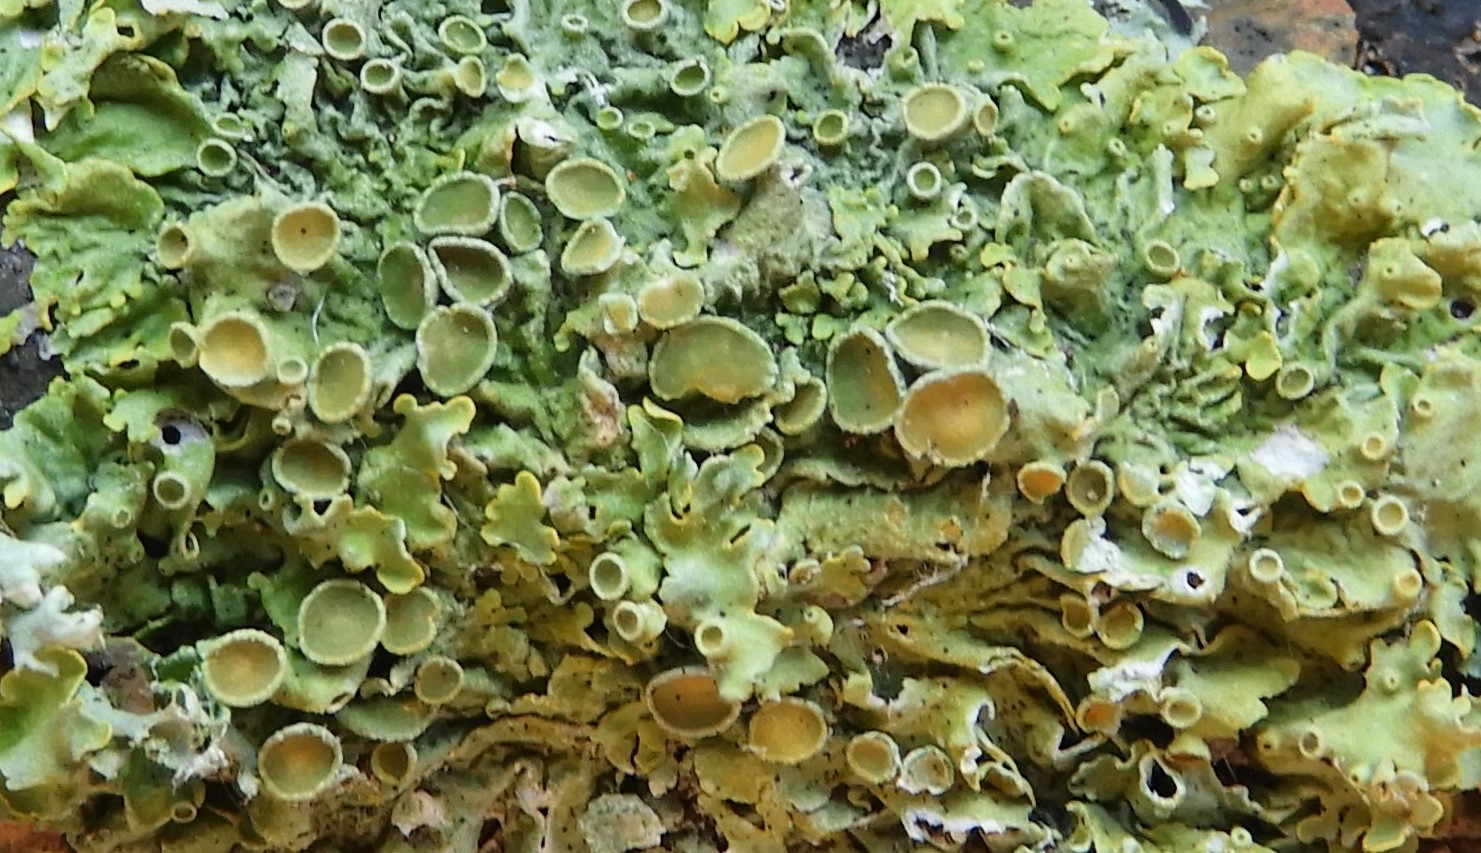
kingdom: Fungi
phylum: Ascomycota
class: Lecanoromycetes
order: Teloschistales
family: Teloschistaceae
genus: Xanthoria
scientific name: Xanthoria parietina
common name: almindelig væggelav
